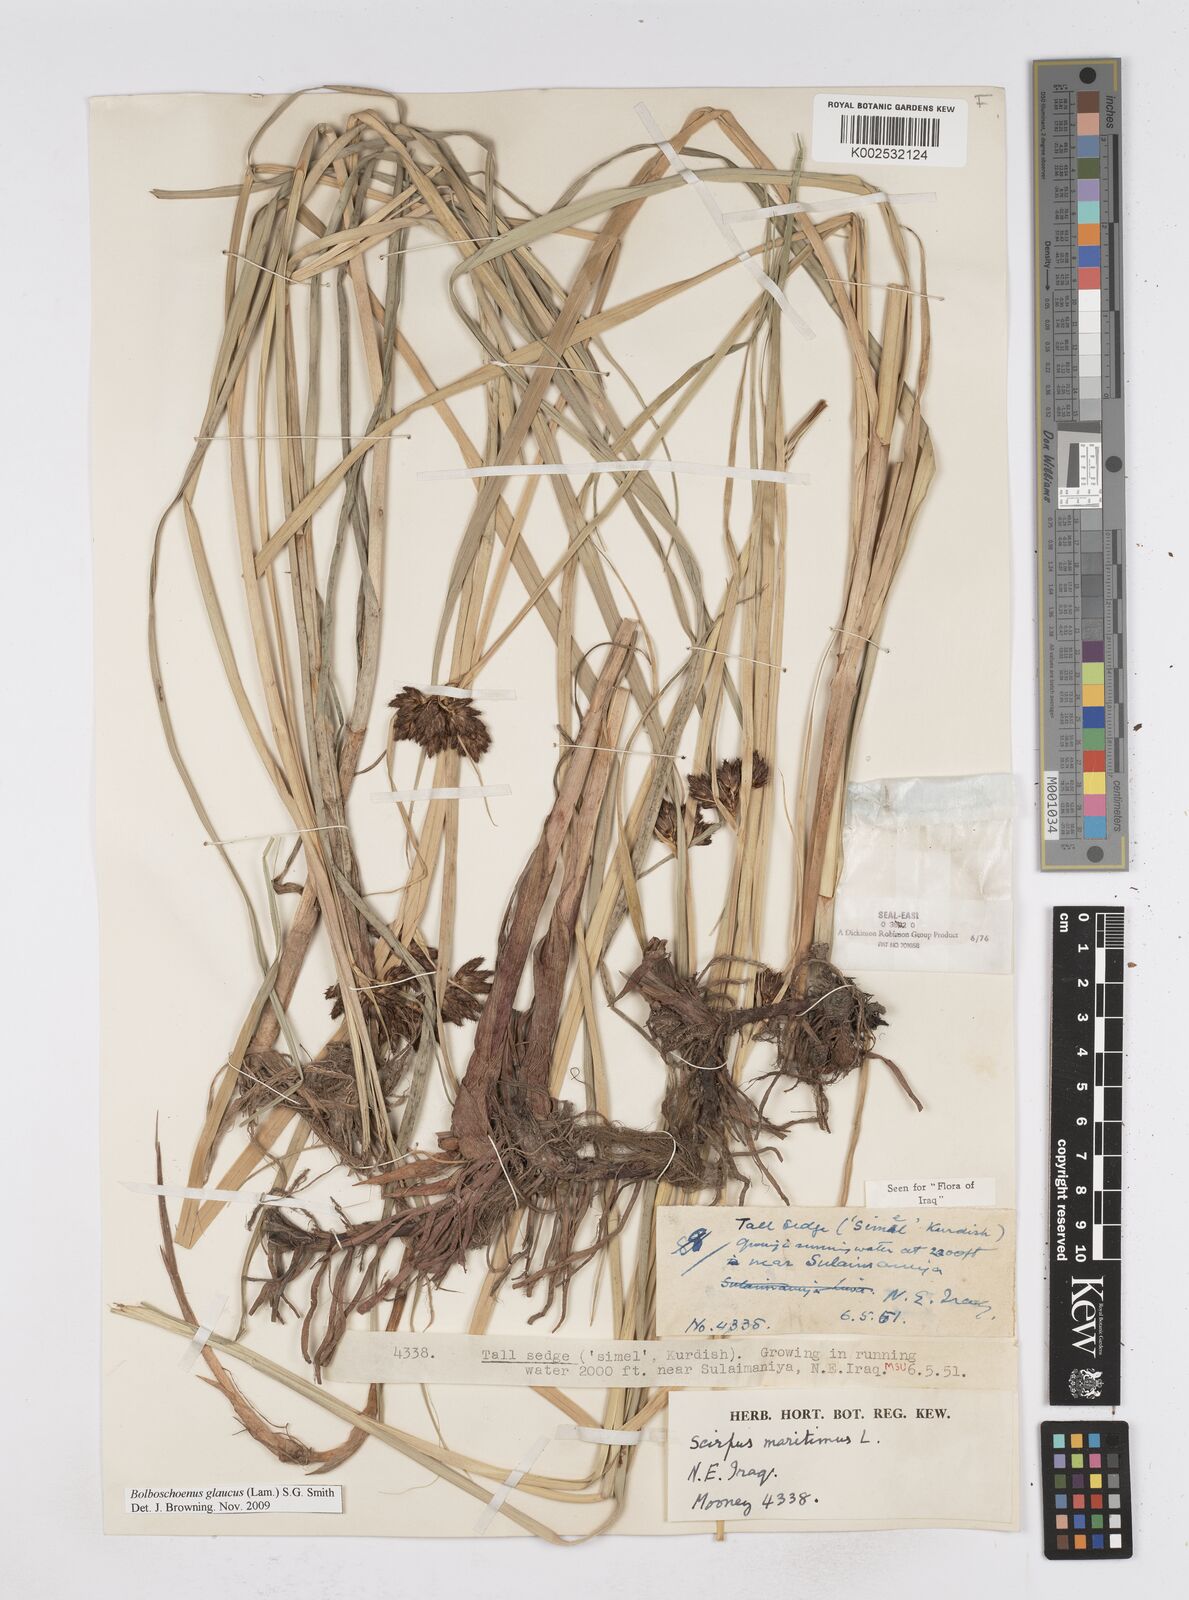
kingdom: Plantae
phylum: Tracheophyta
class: Liliopsida
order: Poales
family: Cyperaceae
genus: Bolboschoenus
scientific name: Bolboschoenus maritimus
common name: Sea club-rush
